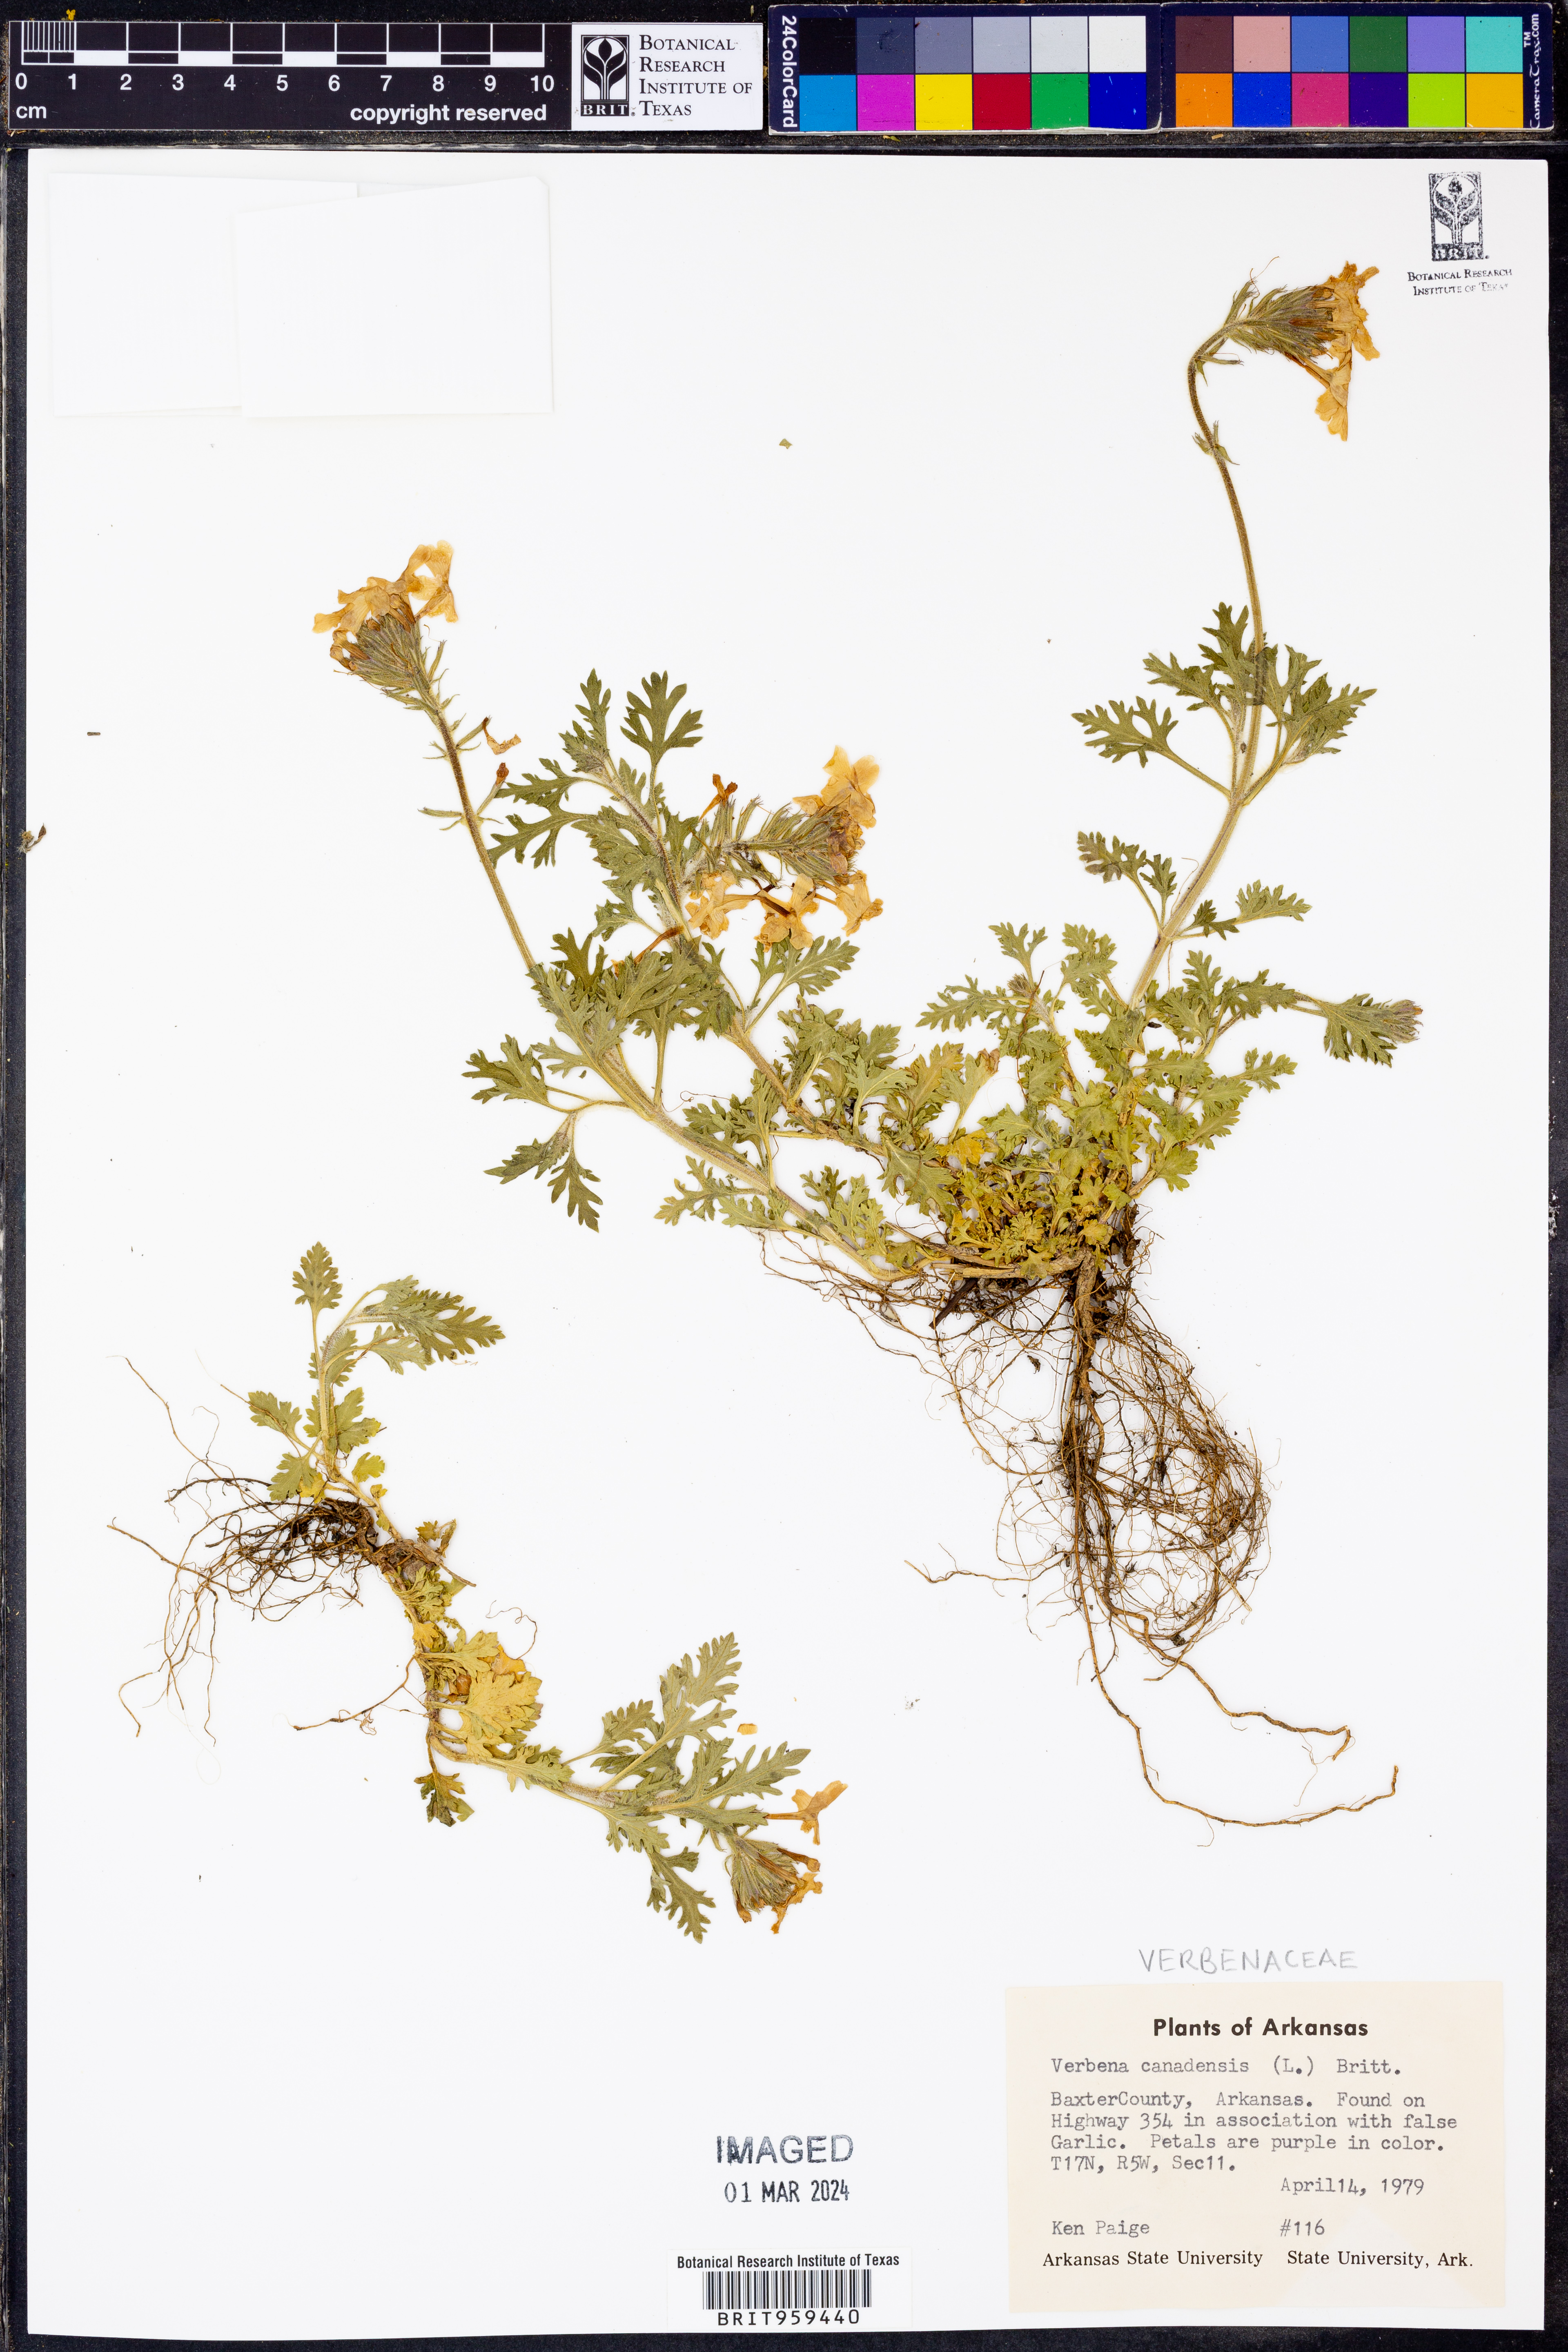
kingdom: Plantae
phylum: Tracheophyta
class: Magnoliopsida
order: Lamiales
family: Verbenaceae
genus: Verbena
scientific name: Verbena canadensis
